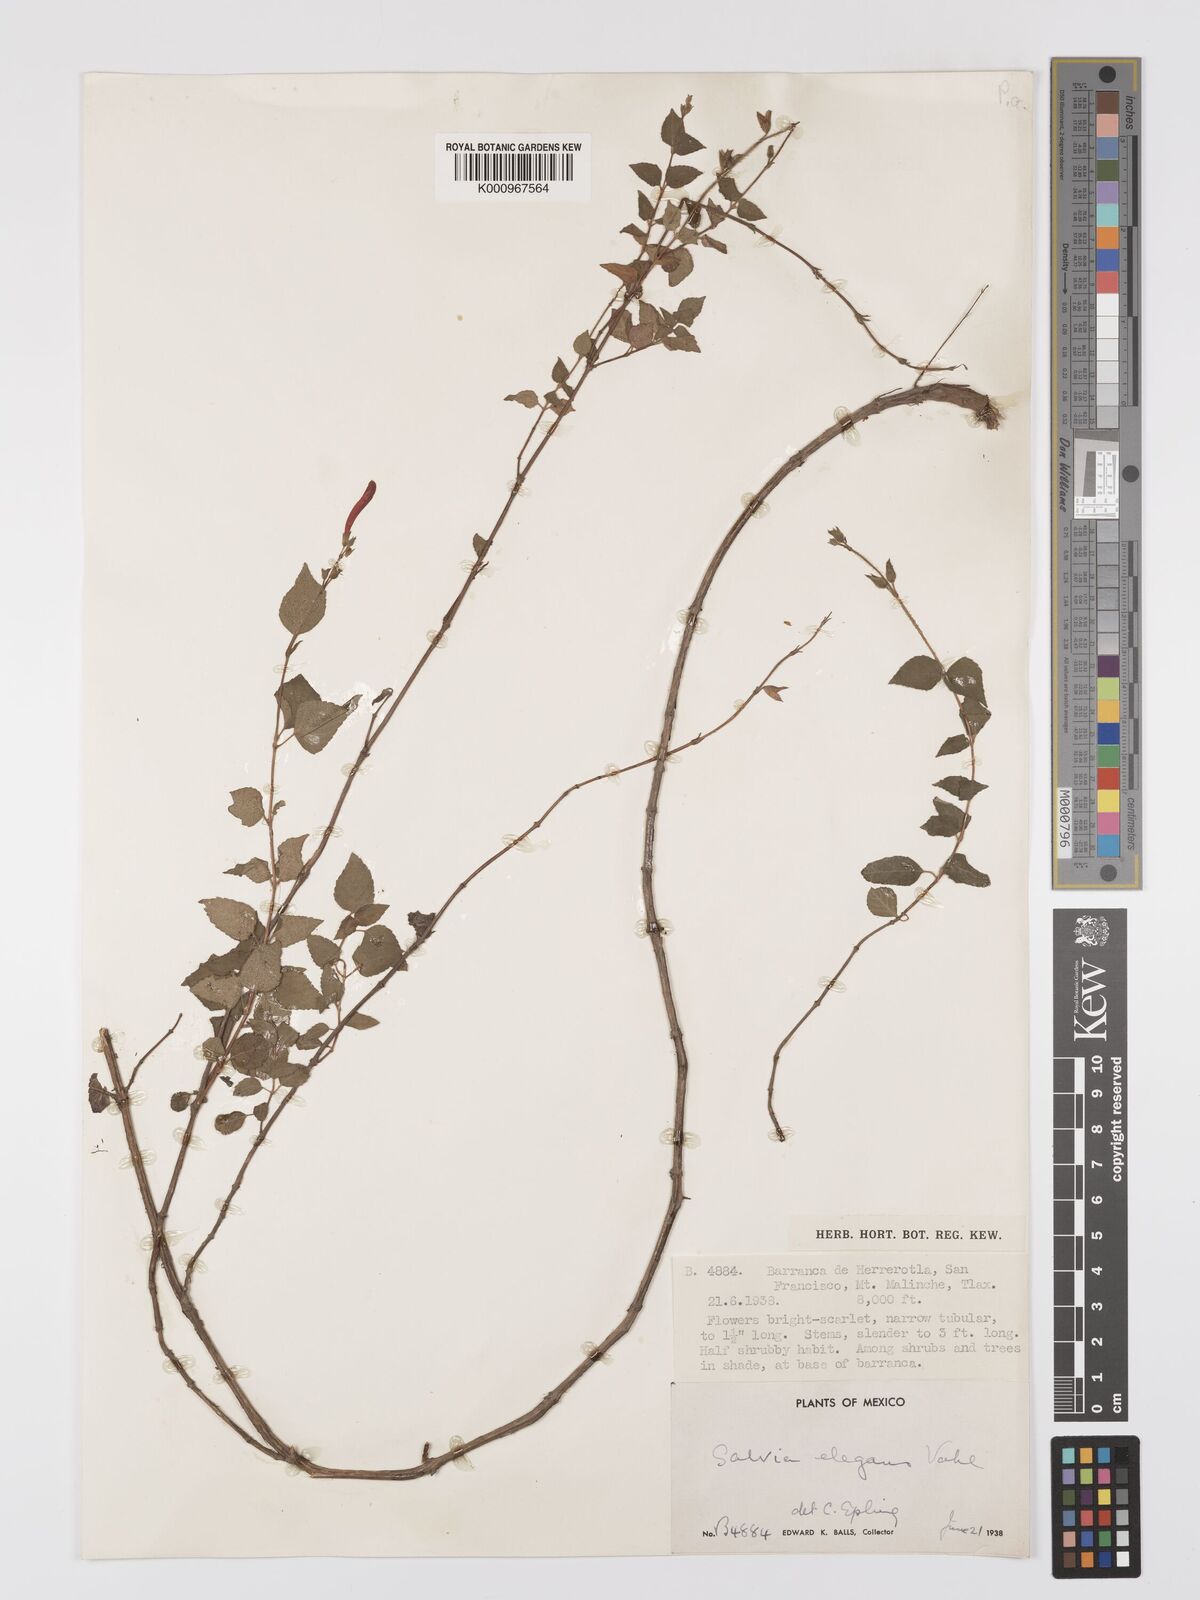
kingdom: Plantae
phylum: Tracheophyta
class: Magnoliopsida
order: Lamiales
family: Lamiaceae
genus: Salvia
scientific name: Salvia elegans
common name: Pineapple sage
